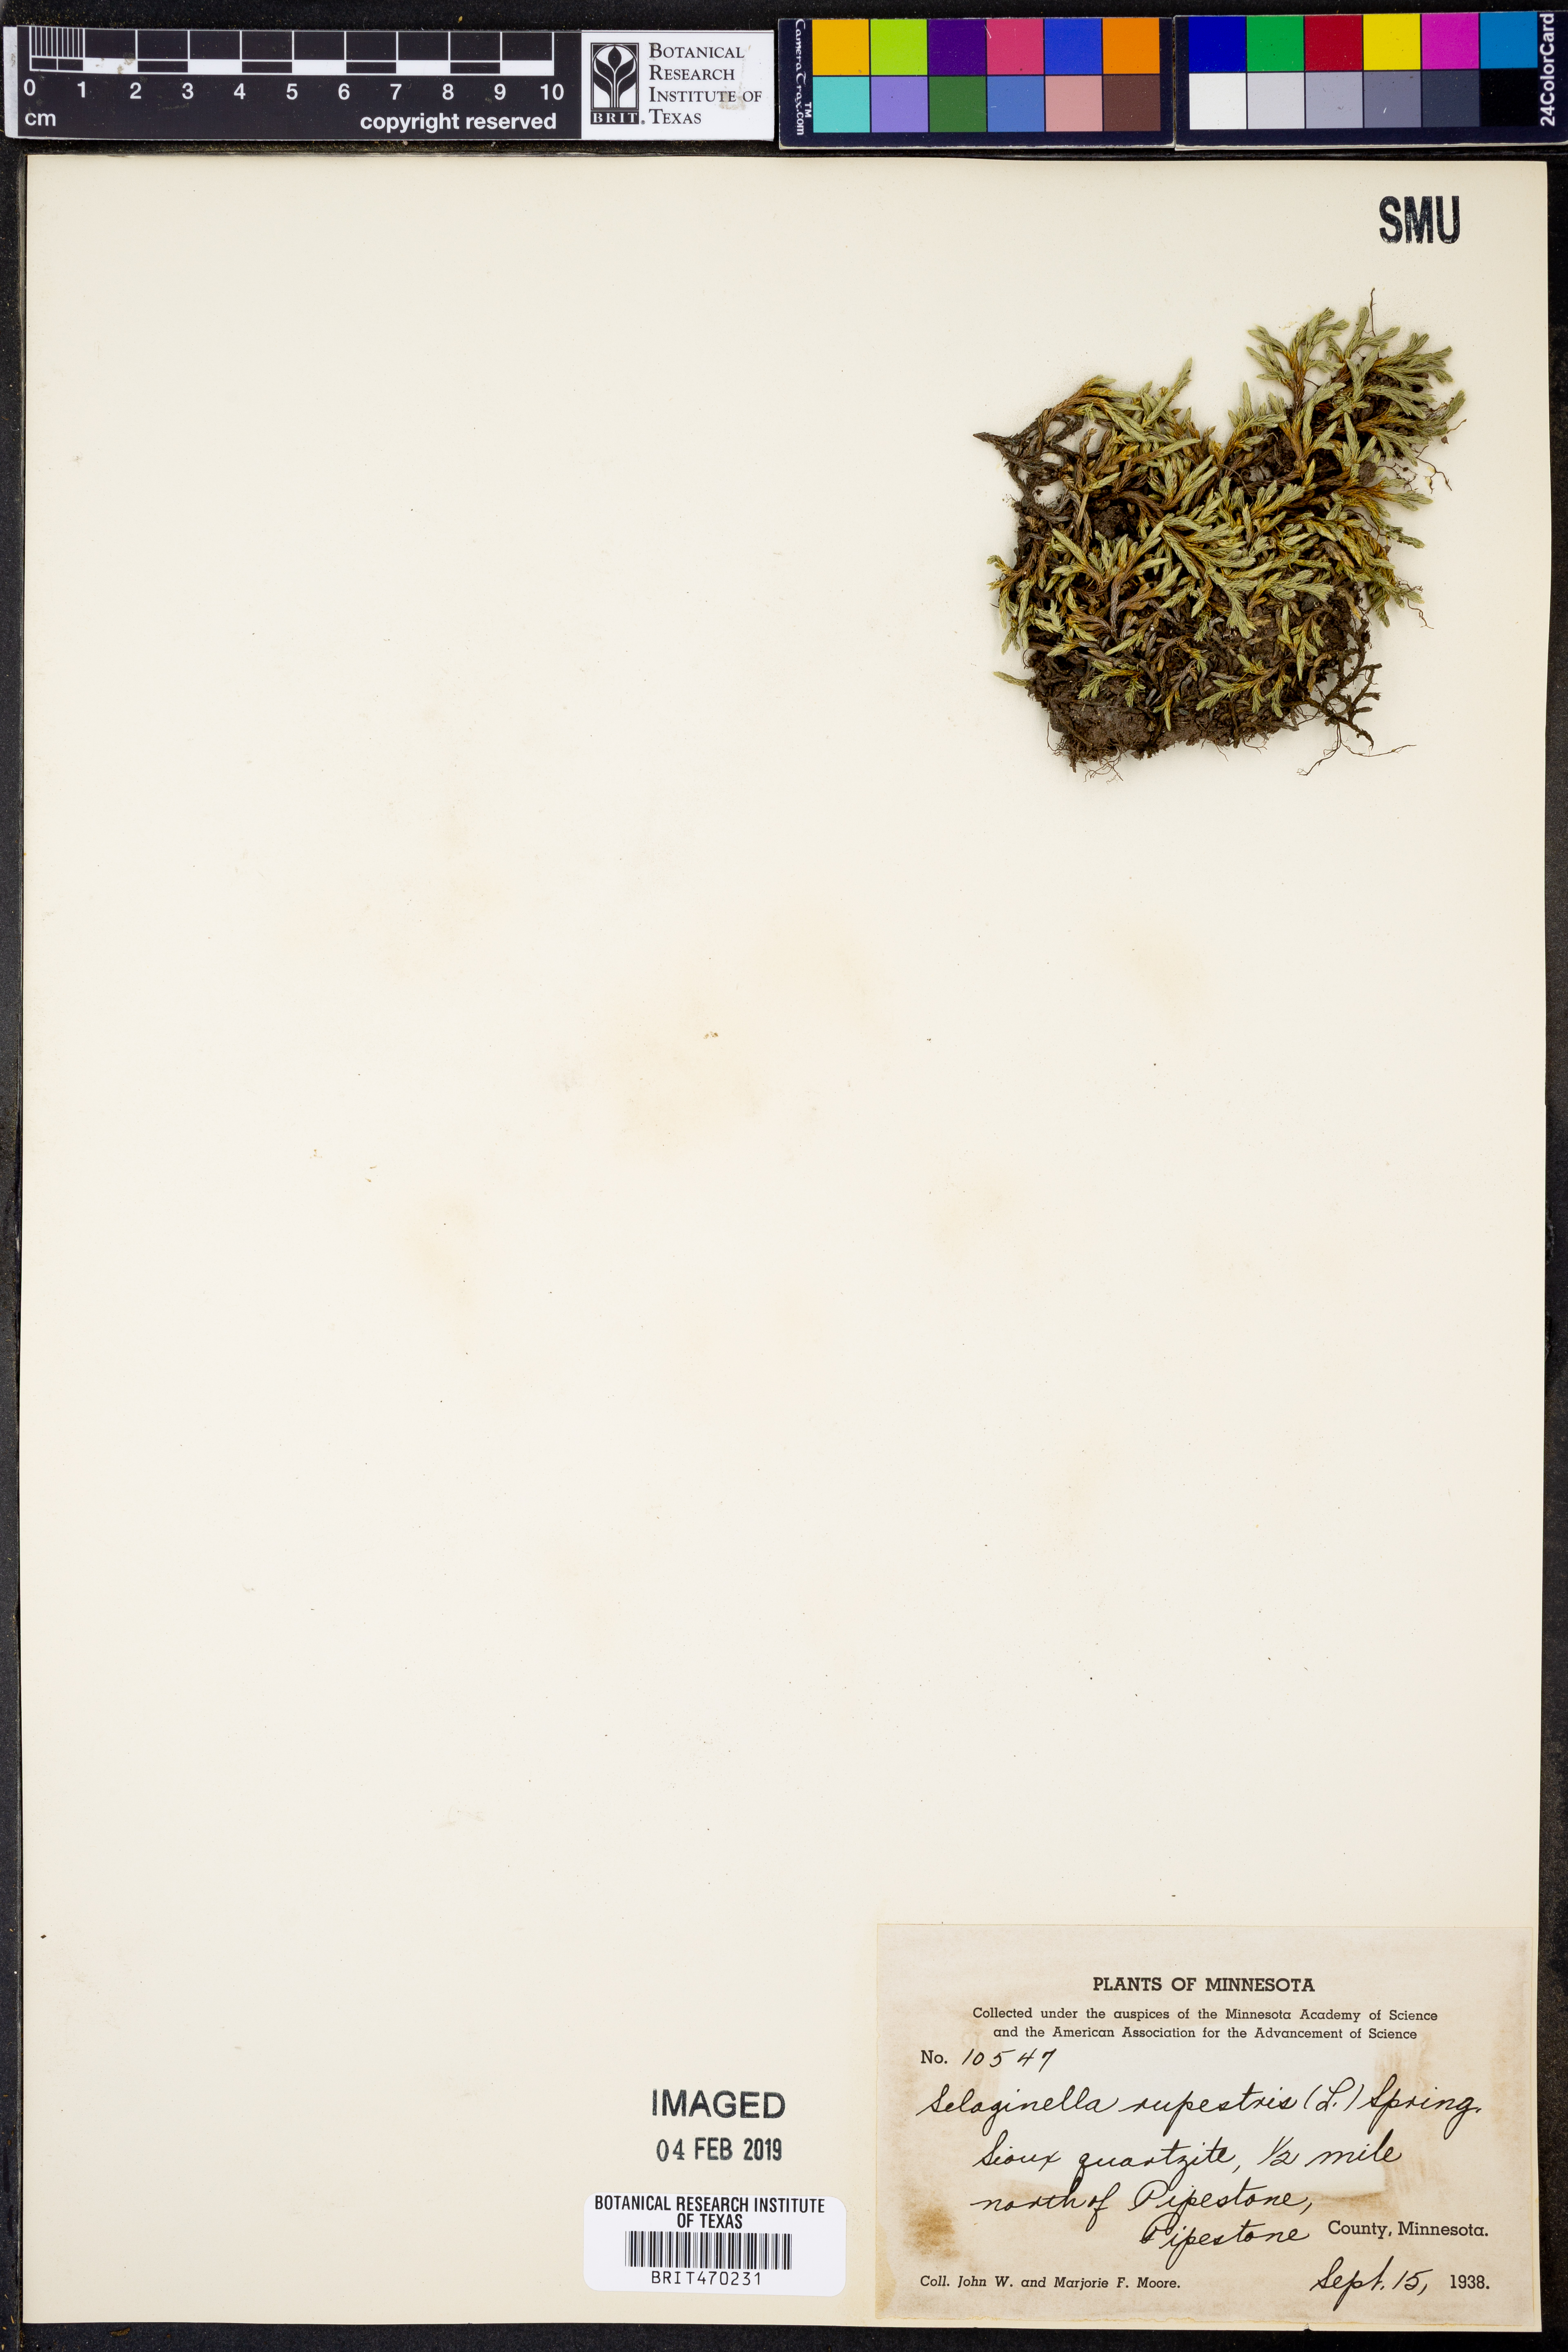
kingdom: Plantae
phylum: Tracheophyta
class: Lycopodiopsida
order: Selaginellales
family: Selaginellaceae
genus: Selaginella
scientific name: Selaginella rupestris
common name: Dwarf spikemoss
